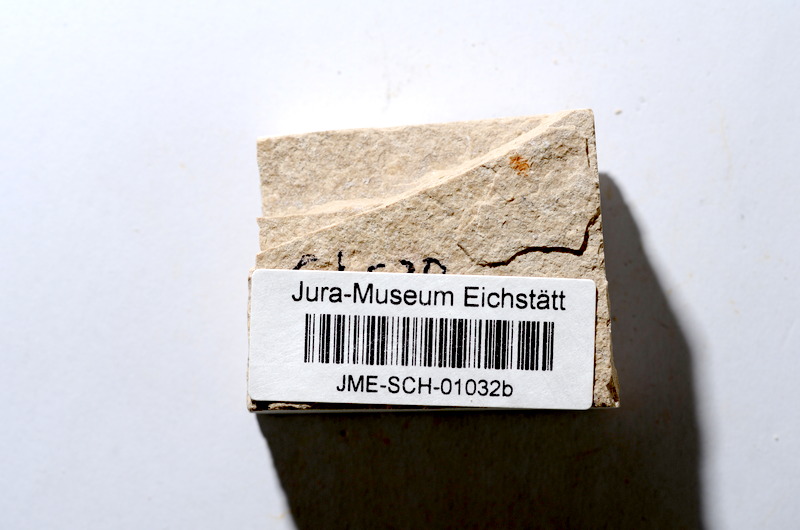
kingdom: Animalia
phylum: Chordata
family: Ascalaboidae
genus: Tharsis
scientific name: Tharsis dubius
